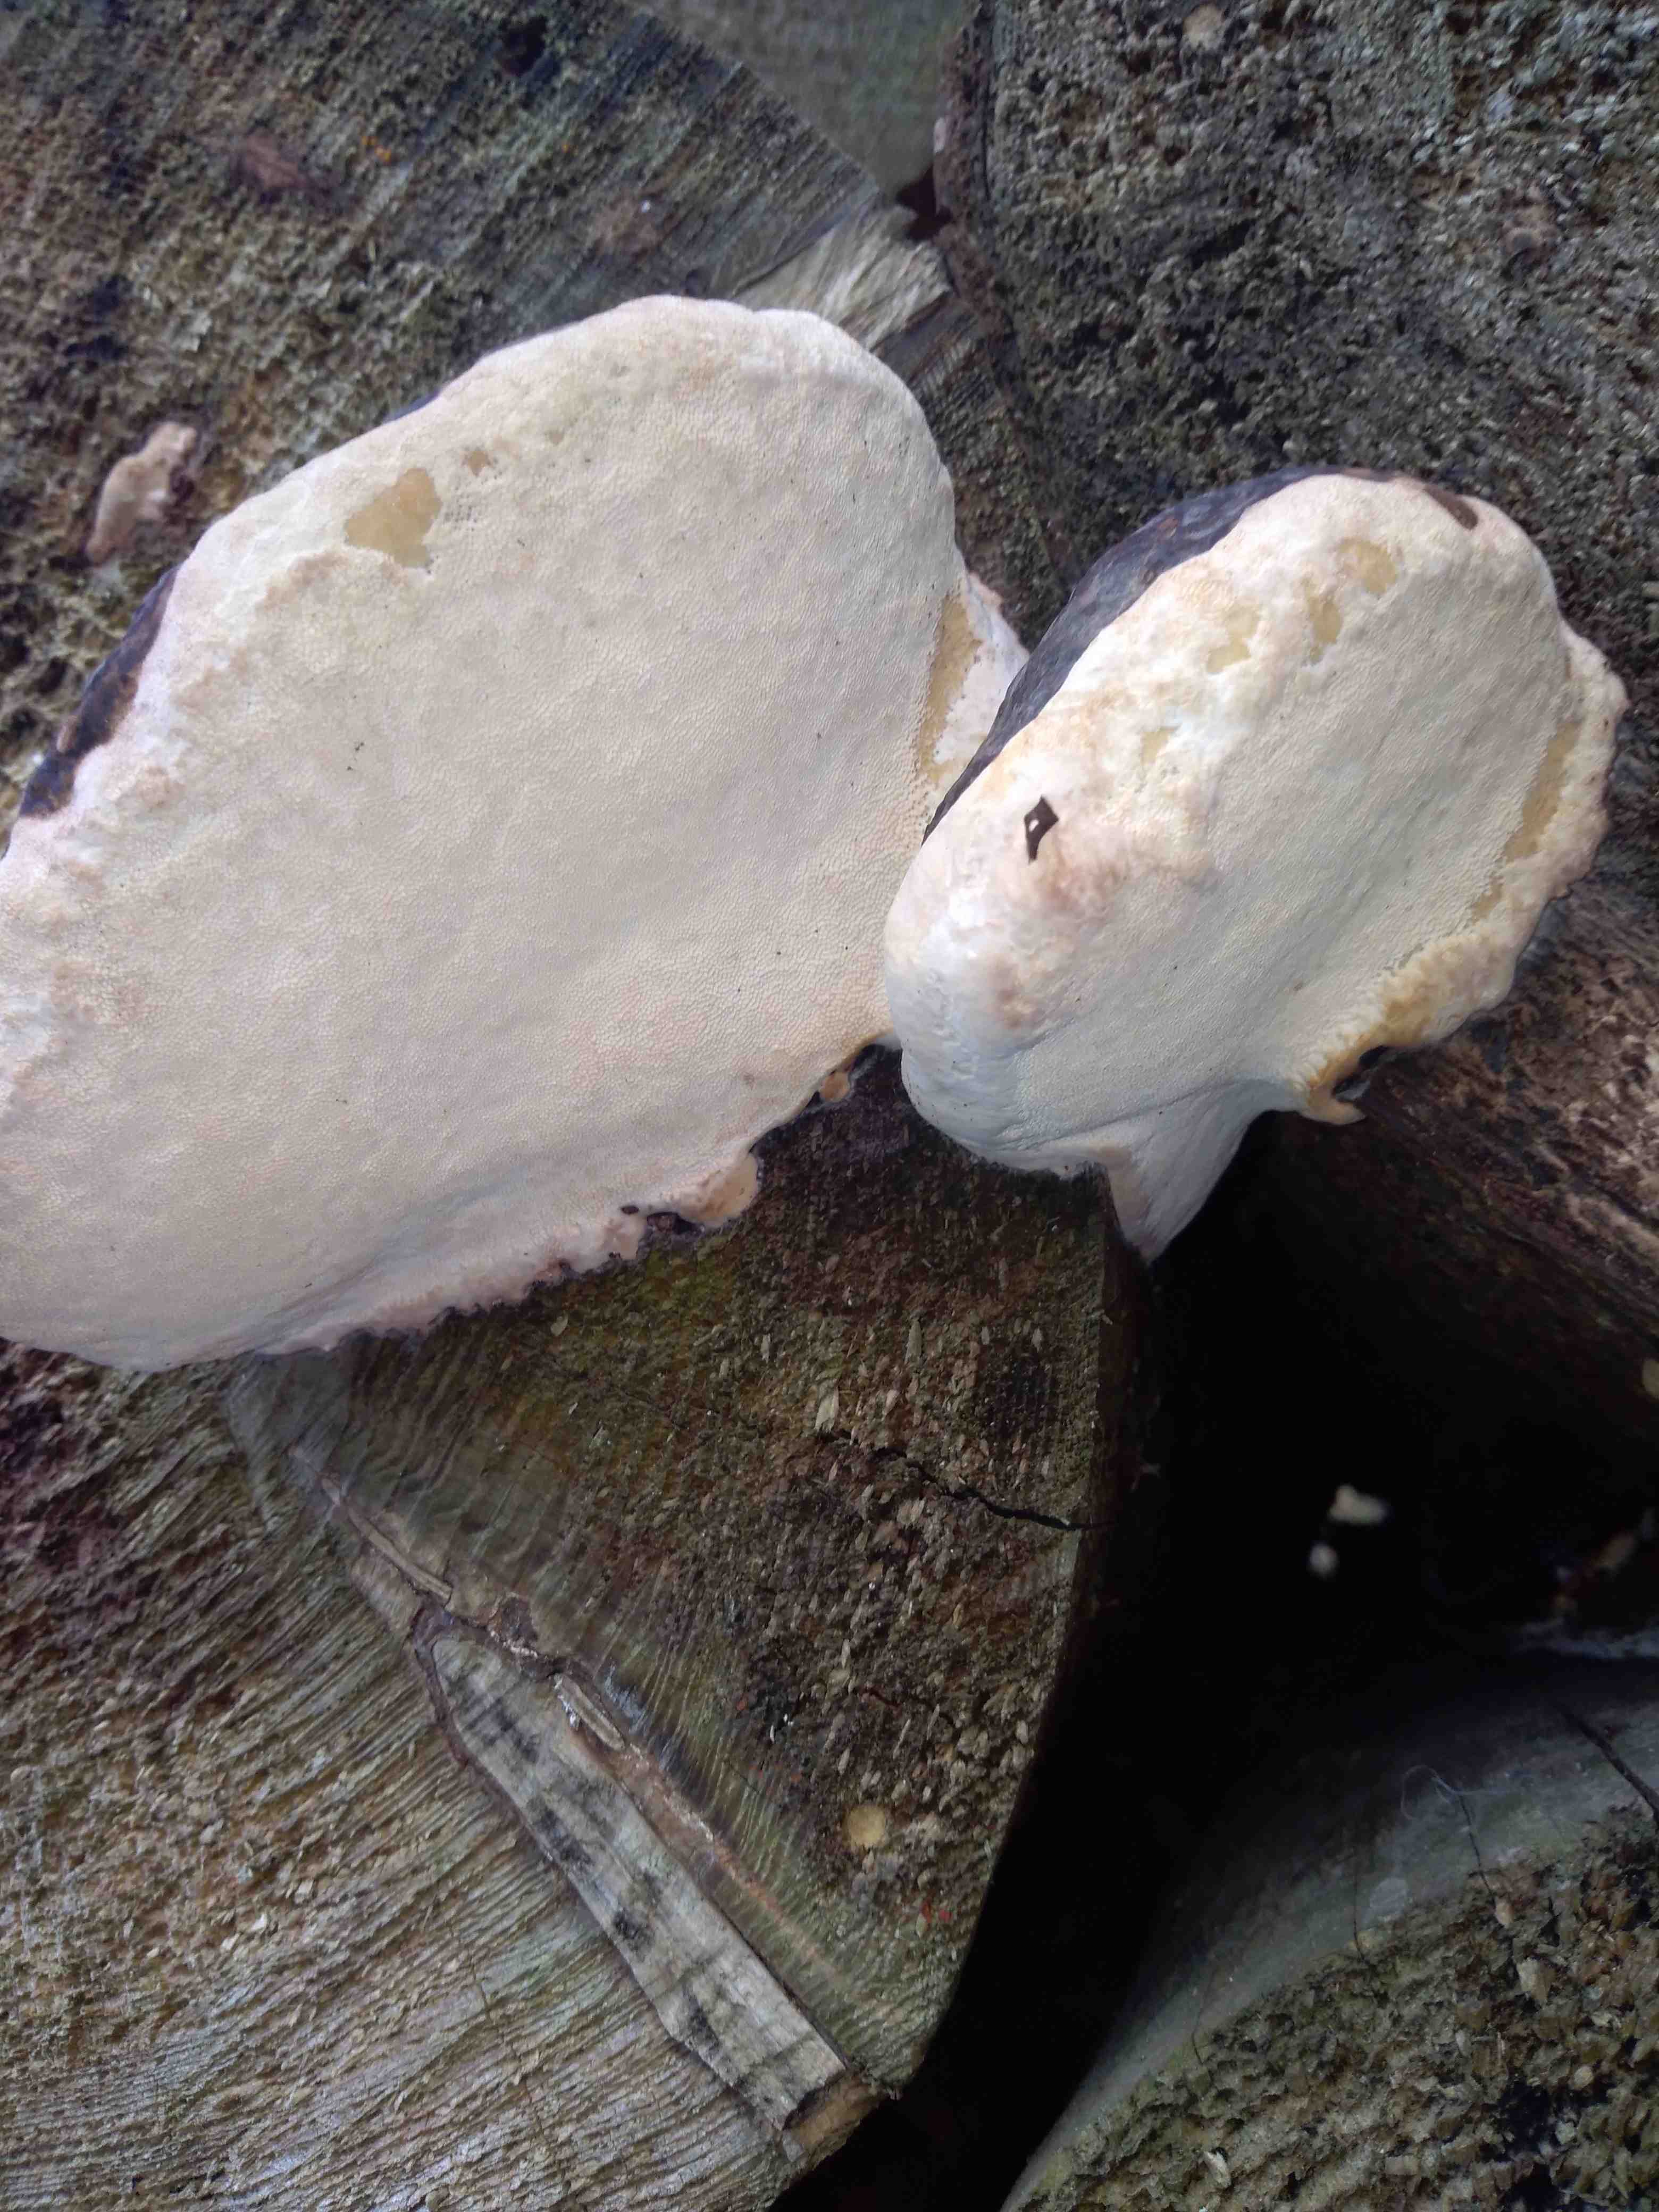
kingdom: Fungi
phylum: Basidiomycota
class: Agaricomycetes
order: Polyporales
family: Fomitopsidaceae
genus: Fomitopsis
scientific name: Fomitopsis pinicola
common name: randbæltet hovporesvamp
